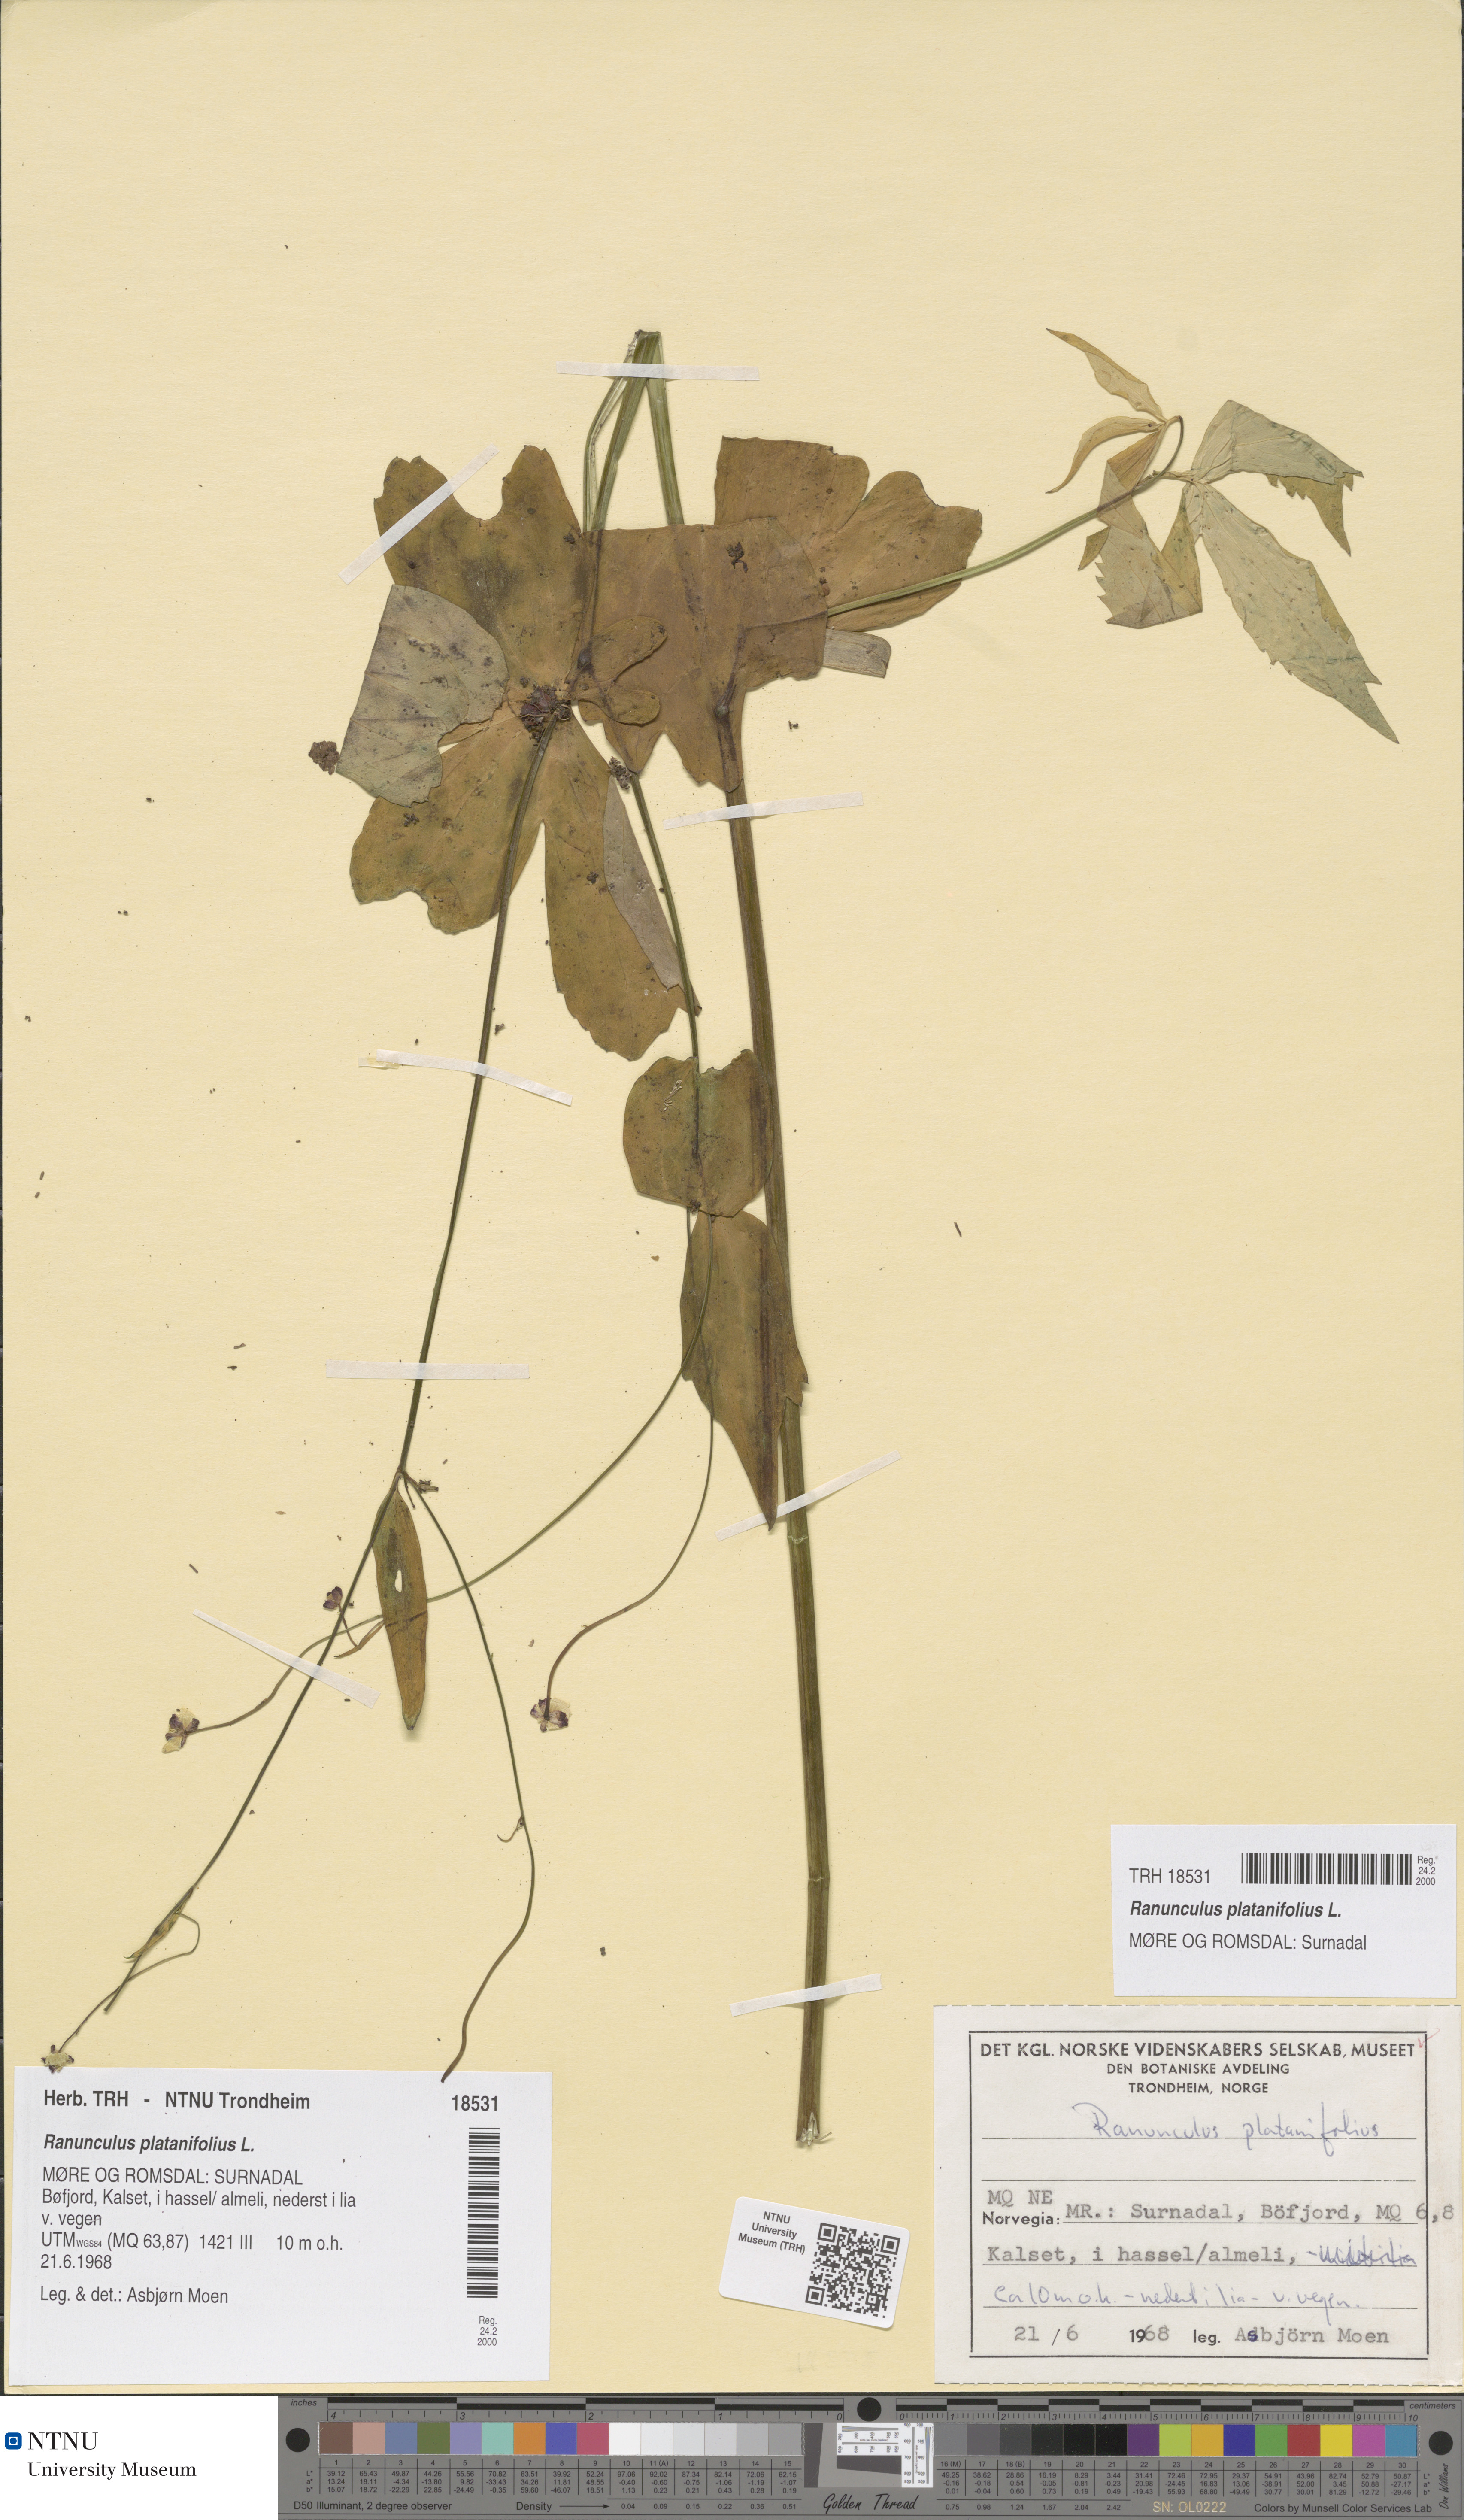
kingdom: Plantae
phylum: Tracheophyta
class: Magnoliopsida
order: Ranunculales
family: Ranunculaceae
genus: Ranunculus
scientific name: Ranunculus platanifolius
